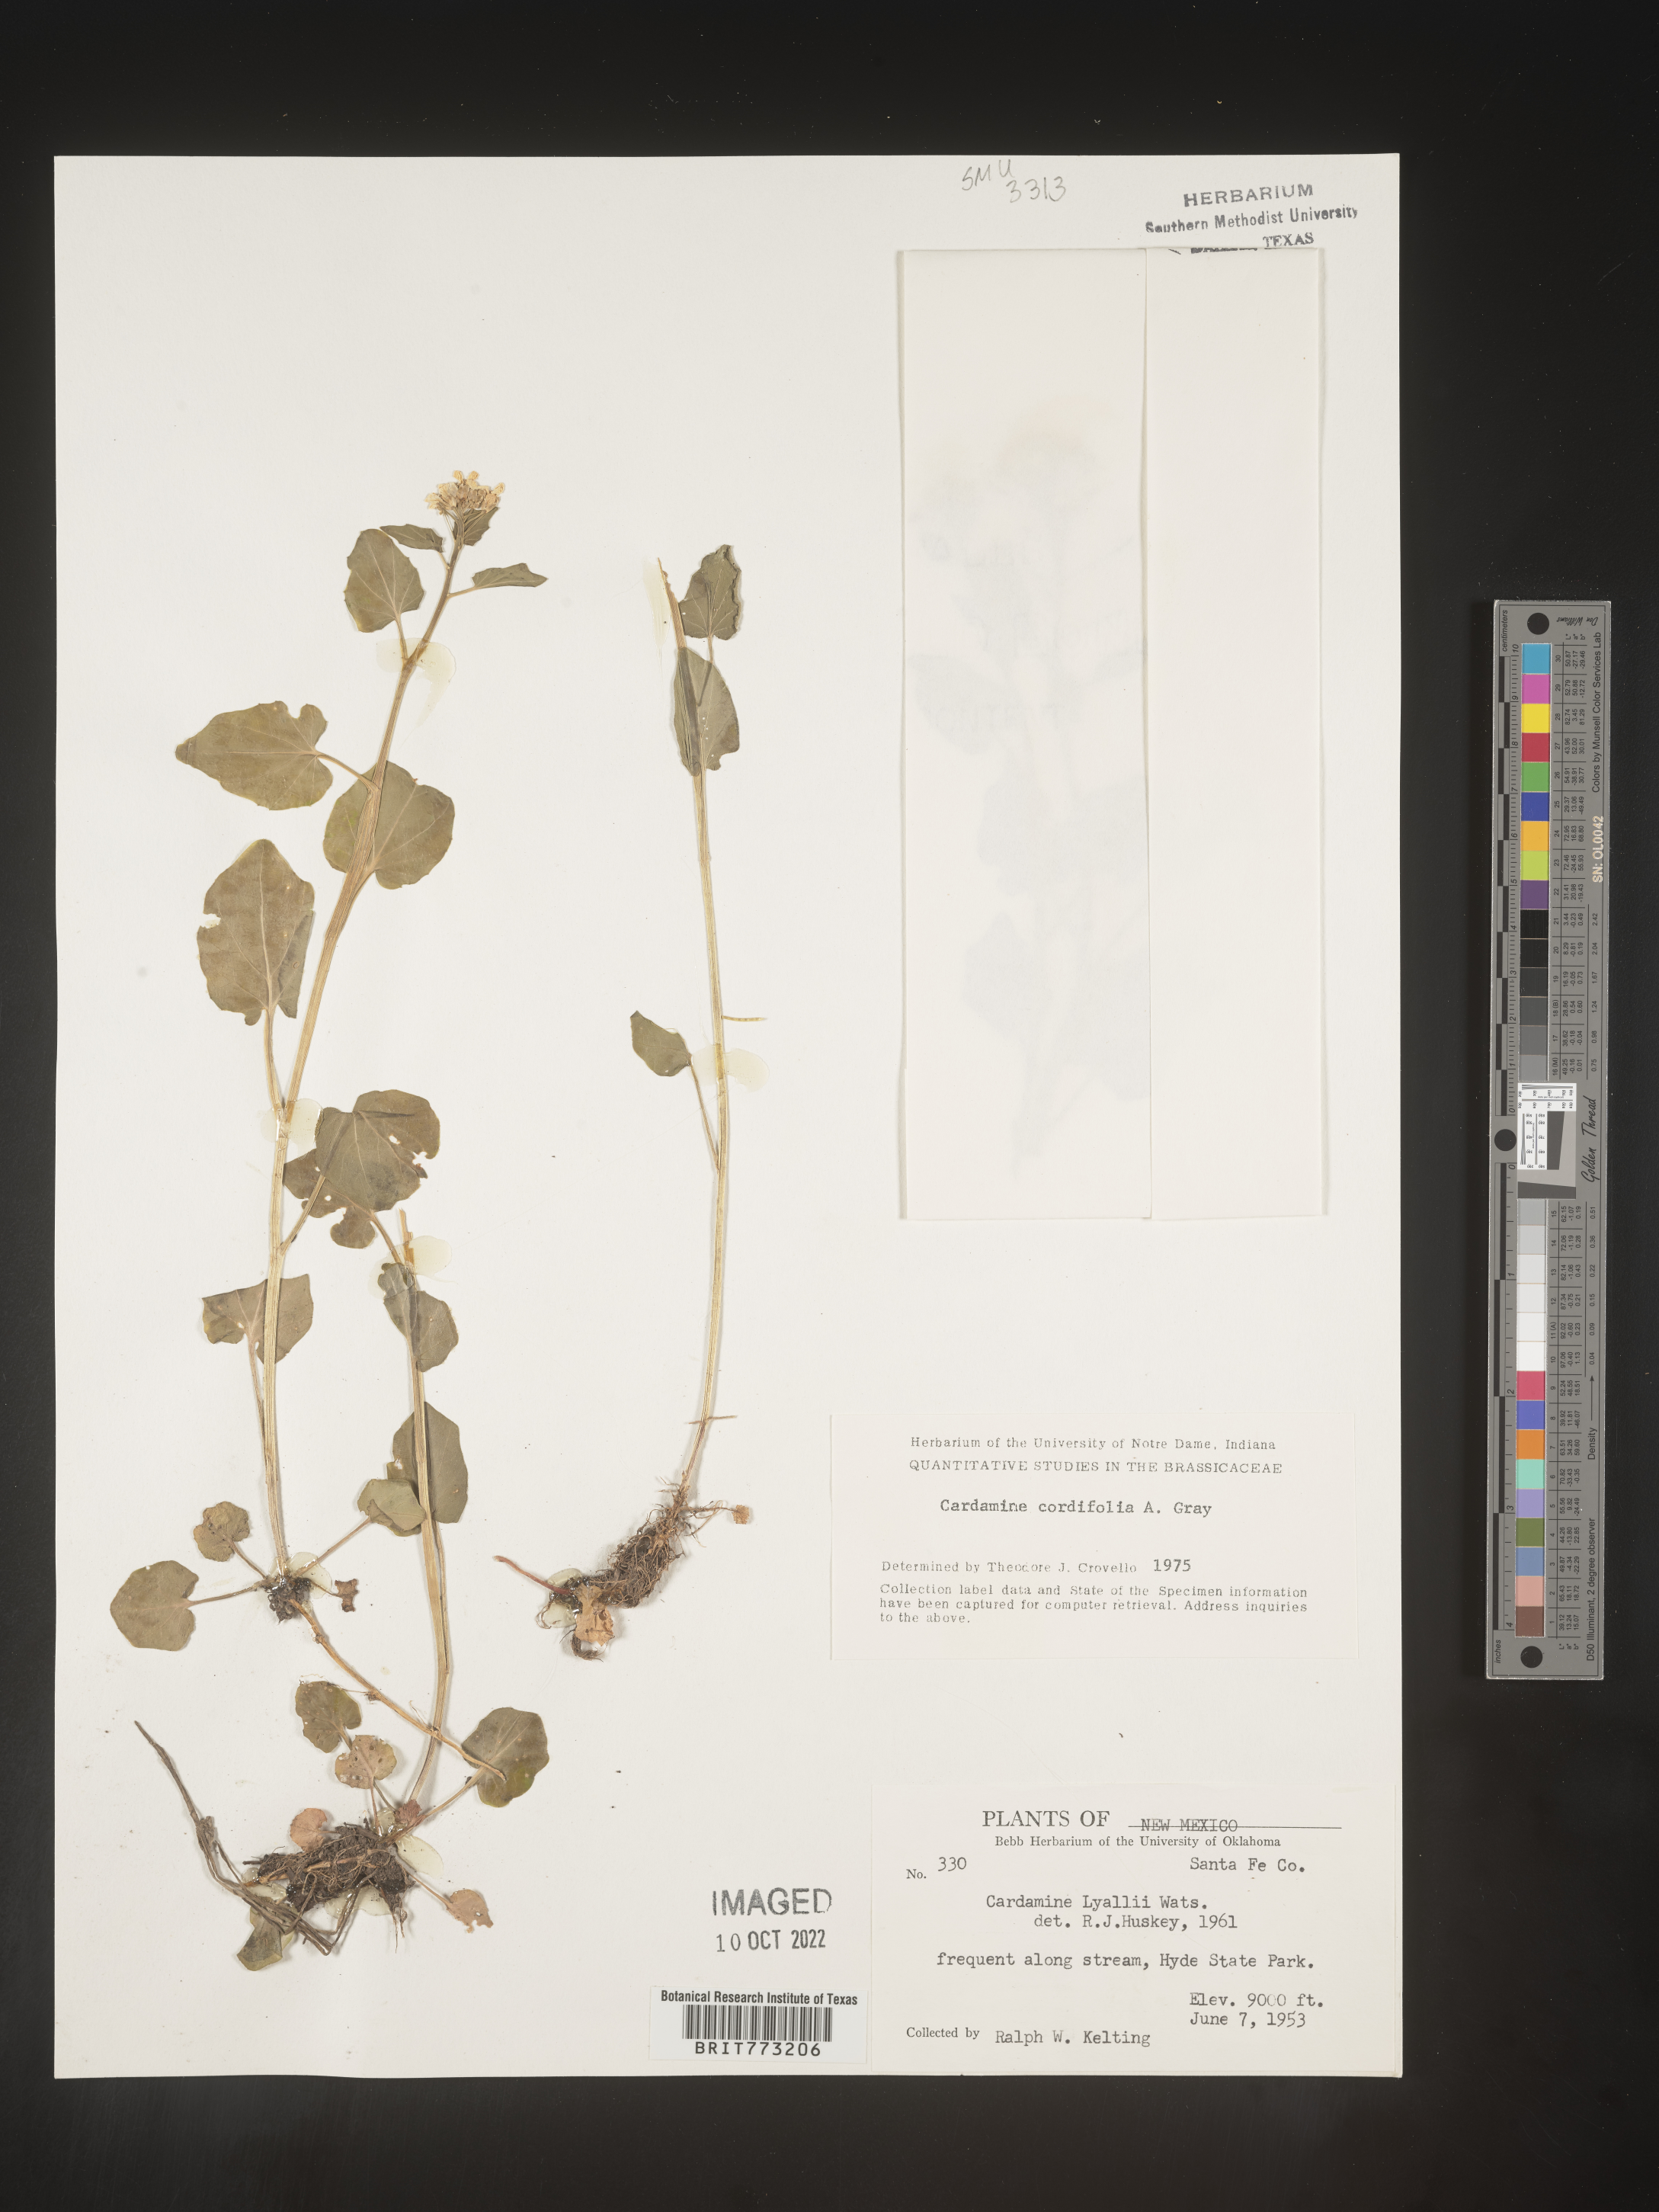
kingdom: Plantae
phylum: Tracheophyta
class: Magnoliopsida
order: Brassicales
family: Brassicaceae
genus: Cardamine
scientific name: Cardamine
